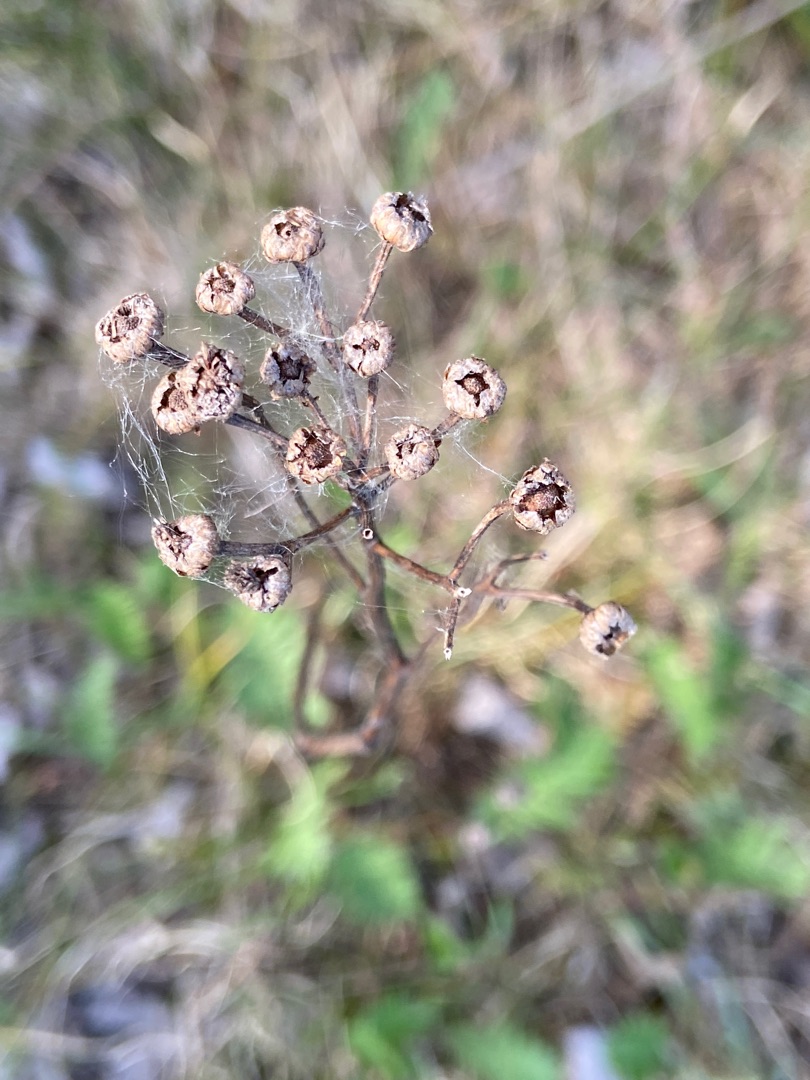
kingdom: Plantae
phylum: Tracheophyta
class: Magnoliopsida
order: Asterales
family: Asteraceae
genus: Tanacetum
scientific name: Tanacetum vulgare
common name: Rejnfan
